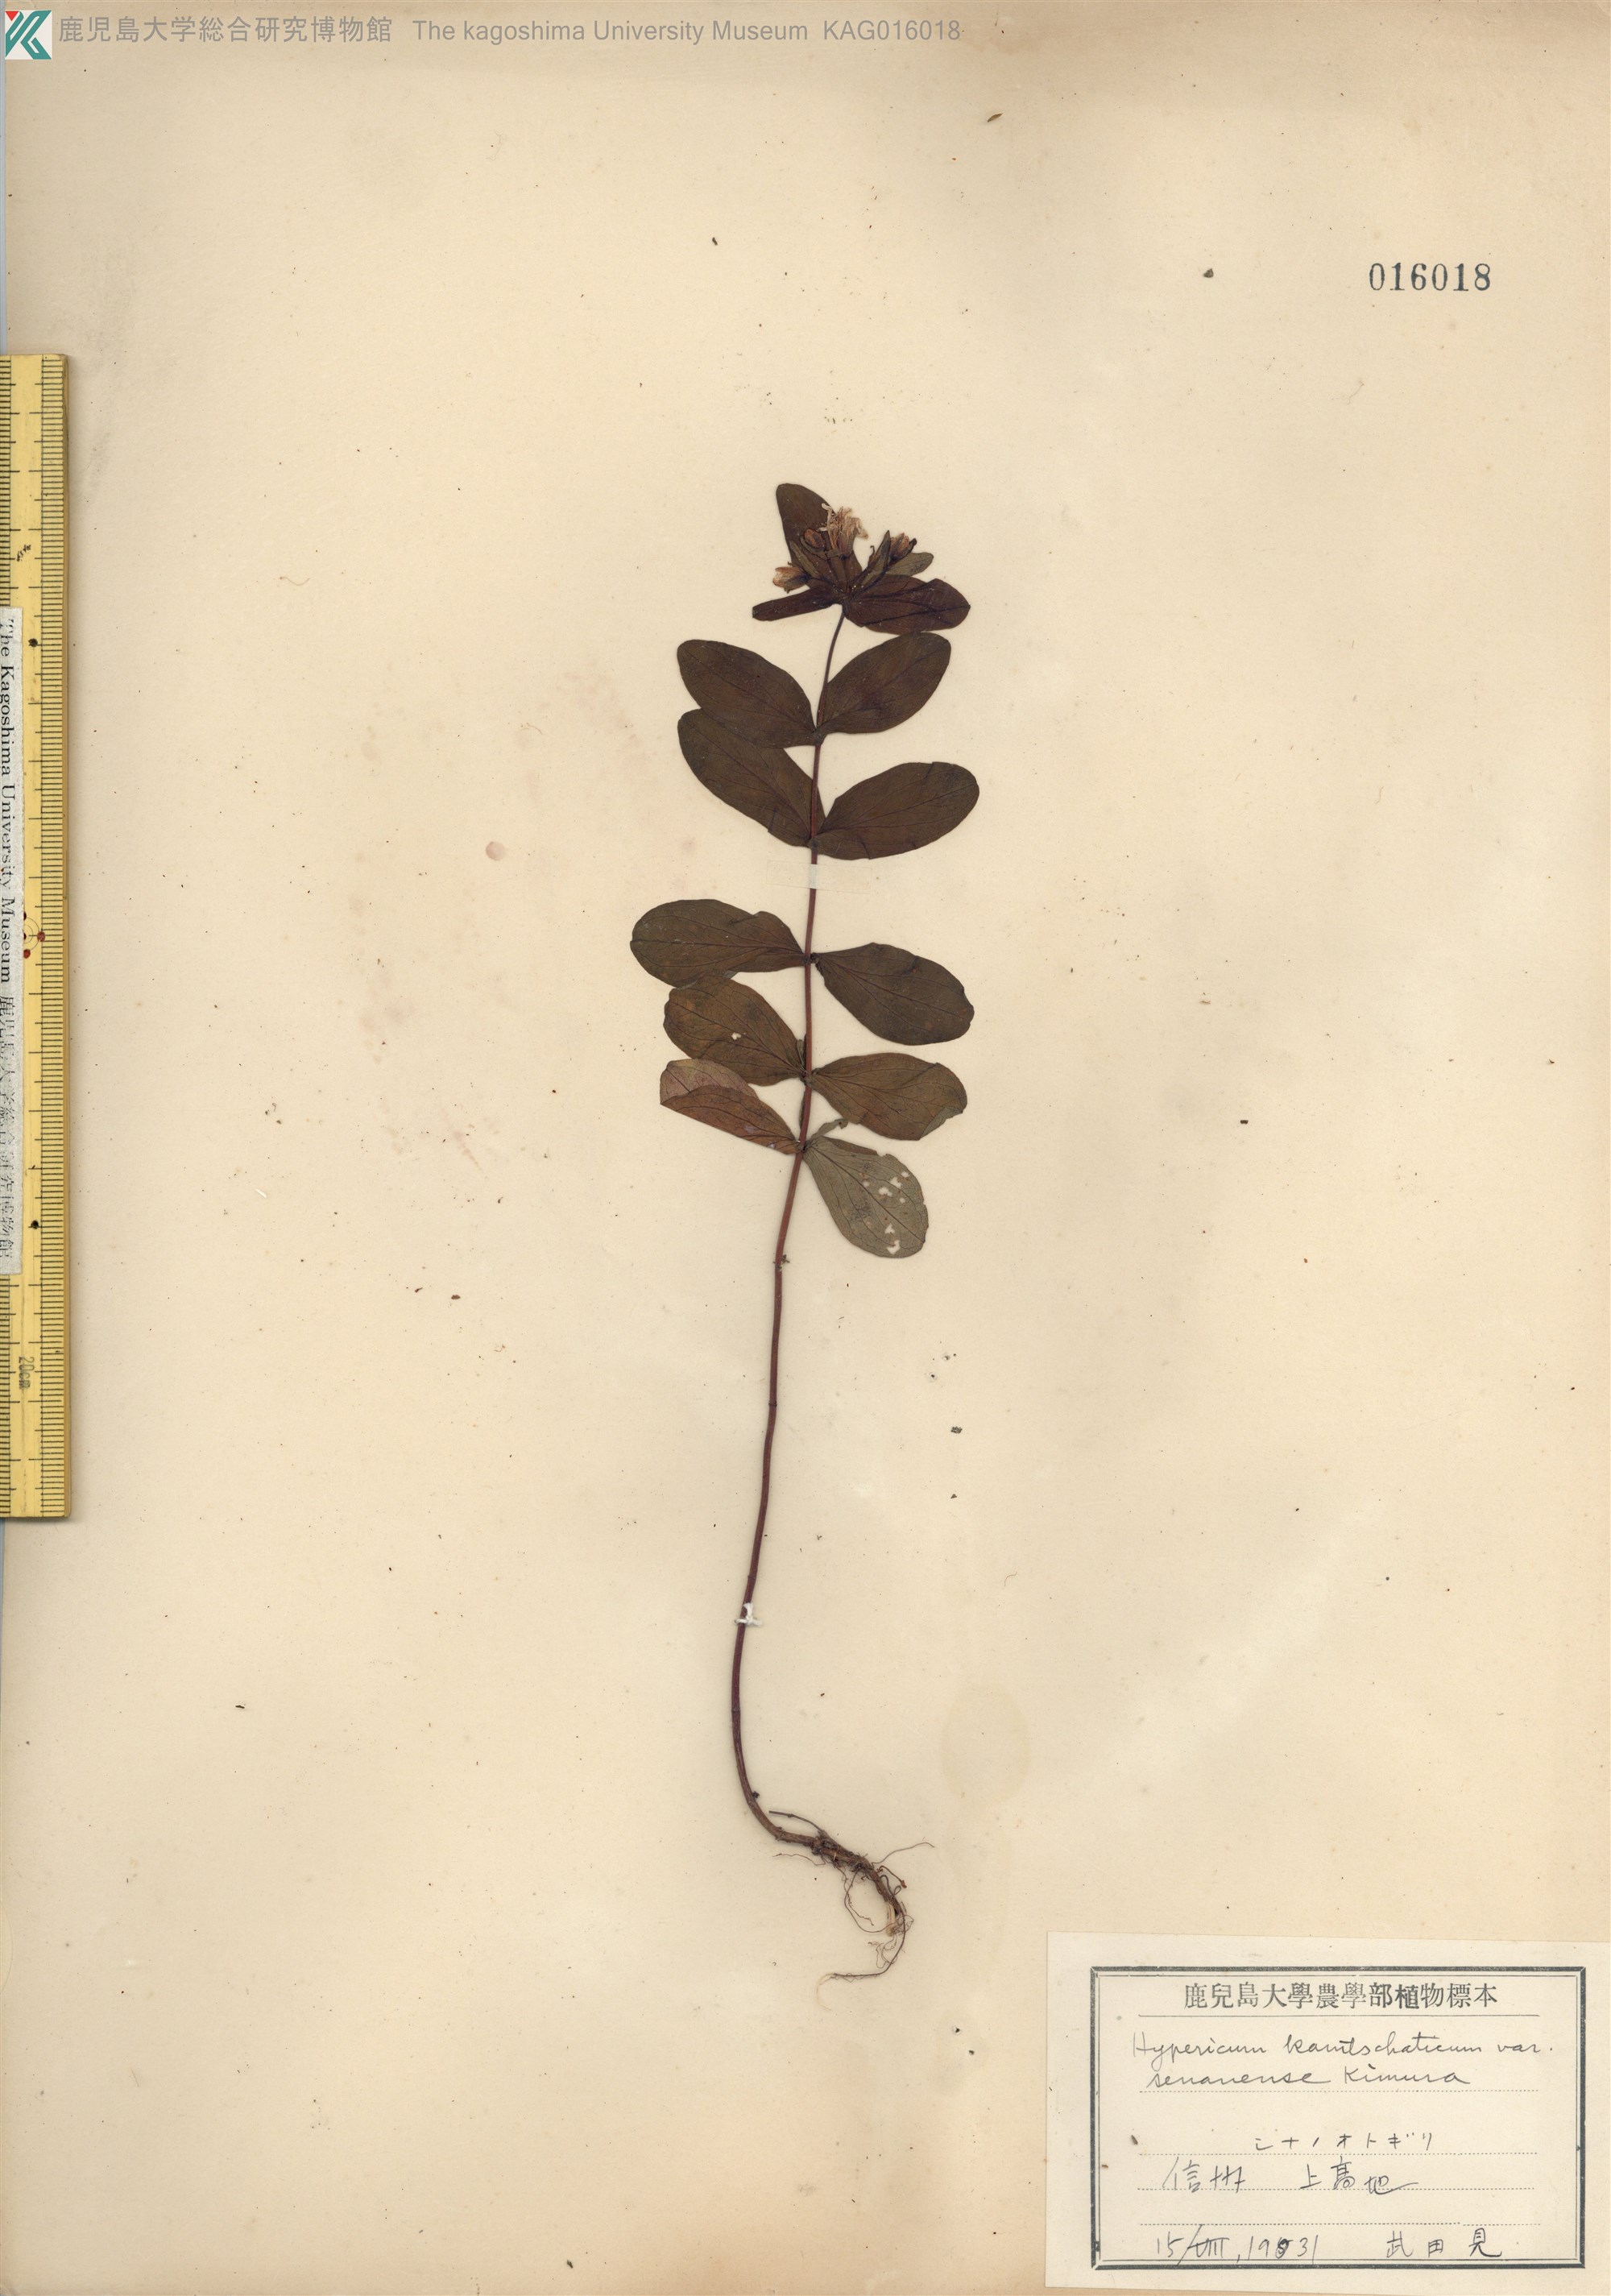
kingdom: Plantae
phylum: Tracheophyta
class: Magnoliopsida
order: Malpighiales
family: Hypericaceae
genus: Hypericum
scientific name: Hypericum kamtschaticum
